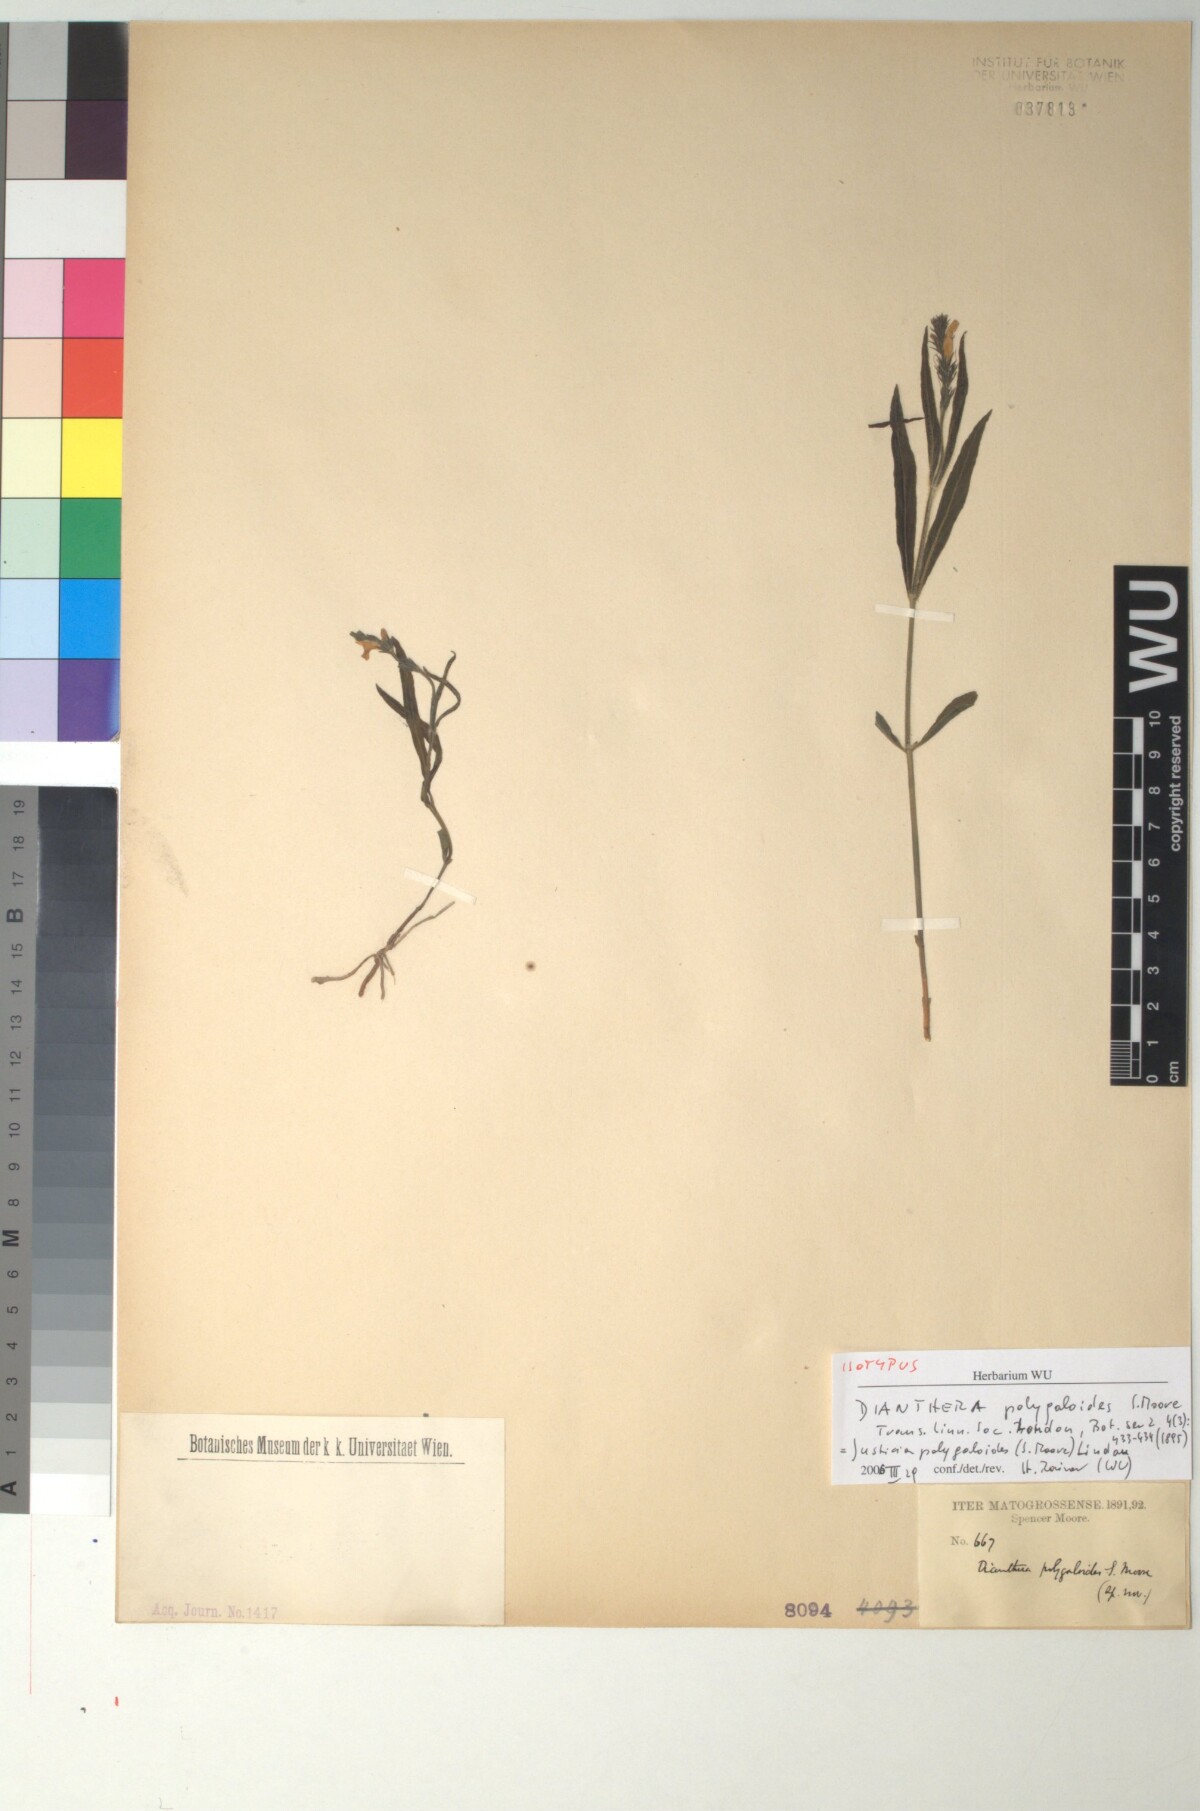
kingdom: Plantae
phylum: Tracheophyta
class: Magnoliopsida
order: Lamiales
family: Acanthaceae
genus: Dianthera
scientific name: Dianthera polygaloides
